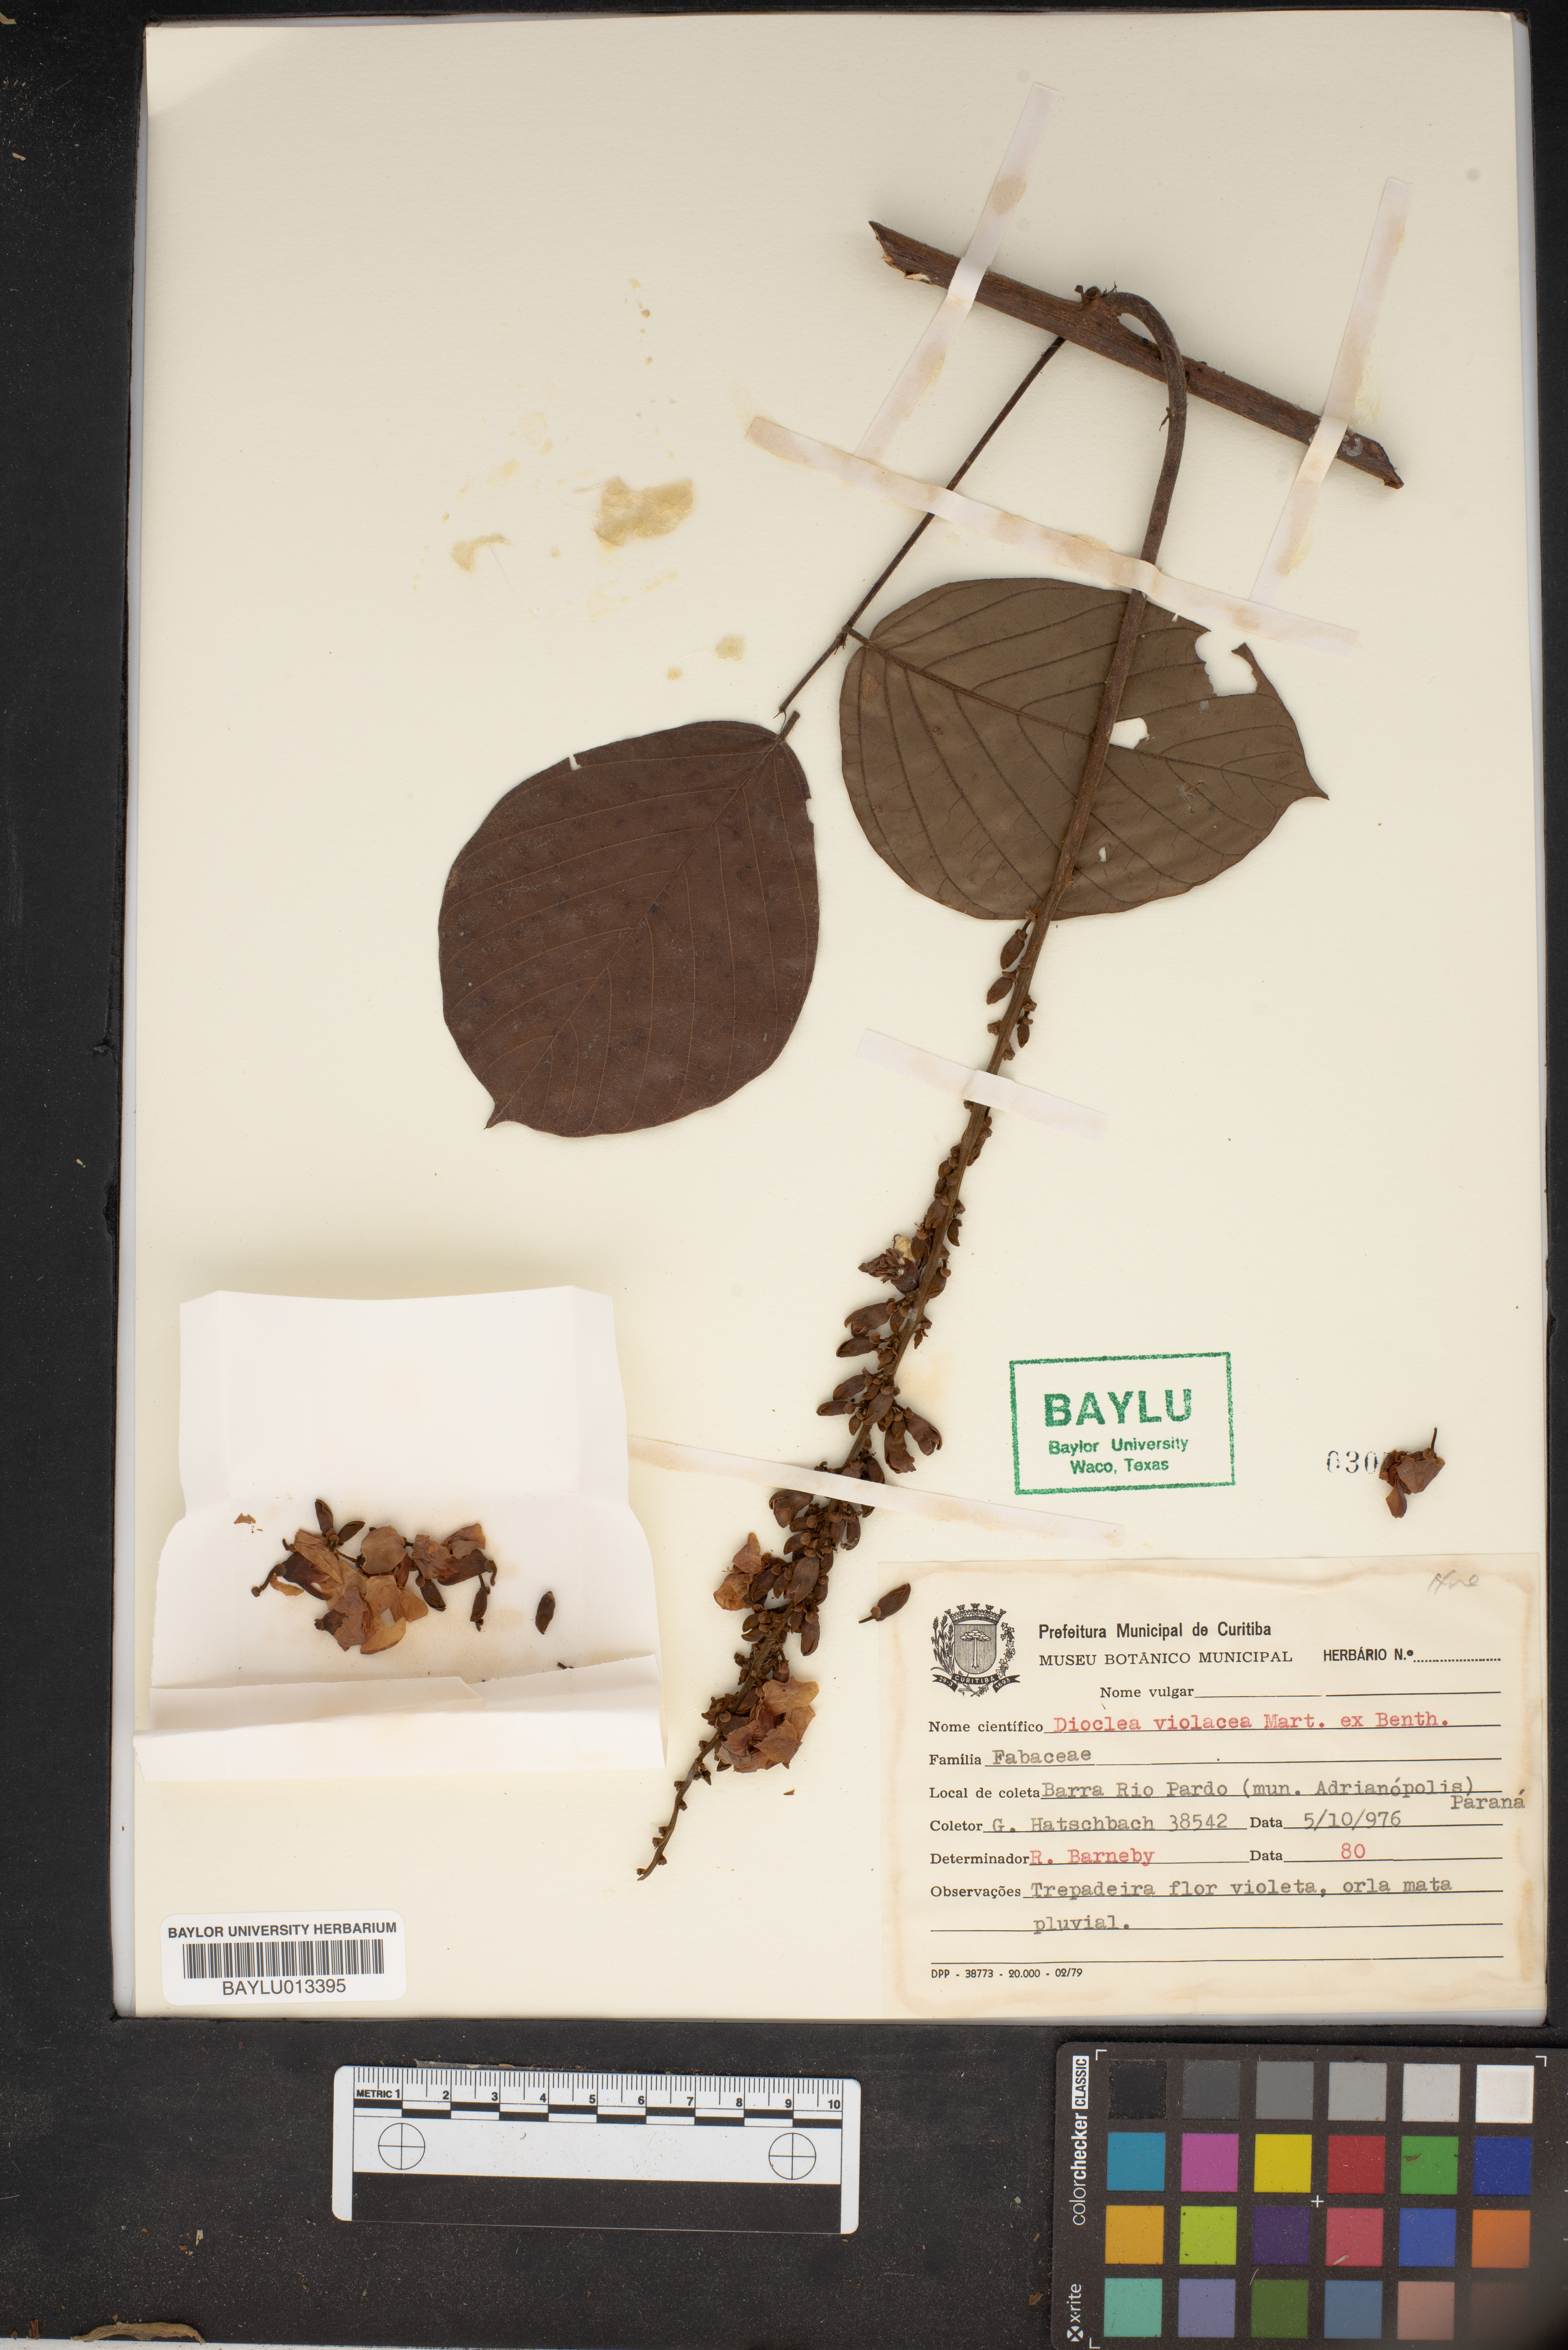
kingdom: Plantae
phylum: Tracheophyta
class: Magnoliopsida
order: Fabales
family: Fabaceae
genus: Macropsychanthus
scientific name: Macropsychanthus violaceus
